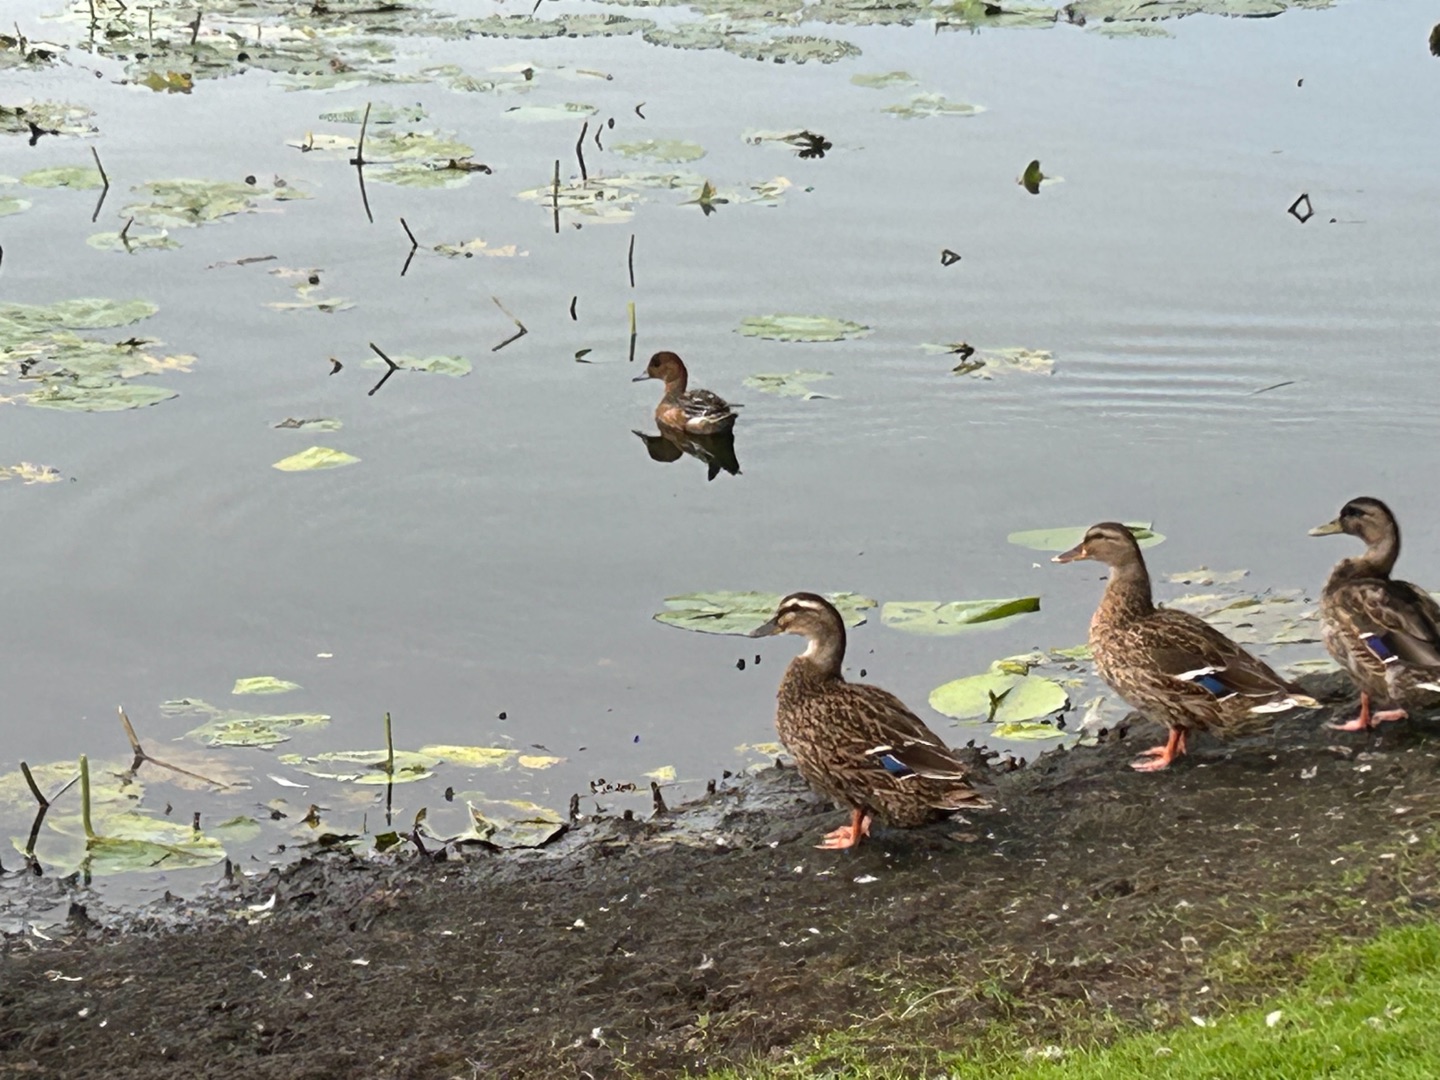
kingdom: Animalia
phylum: Chordata
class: Aves
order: Anseriformes
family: Anatidae
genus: Mareca
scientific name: Mareca penelope
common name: Pibeand
